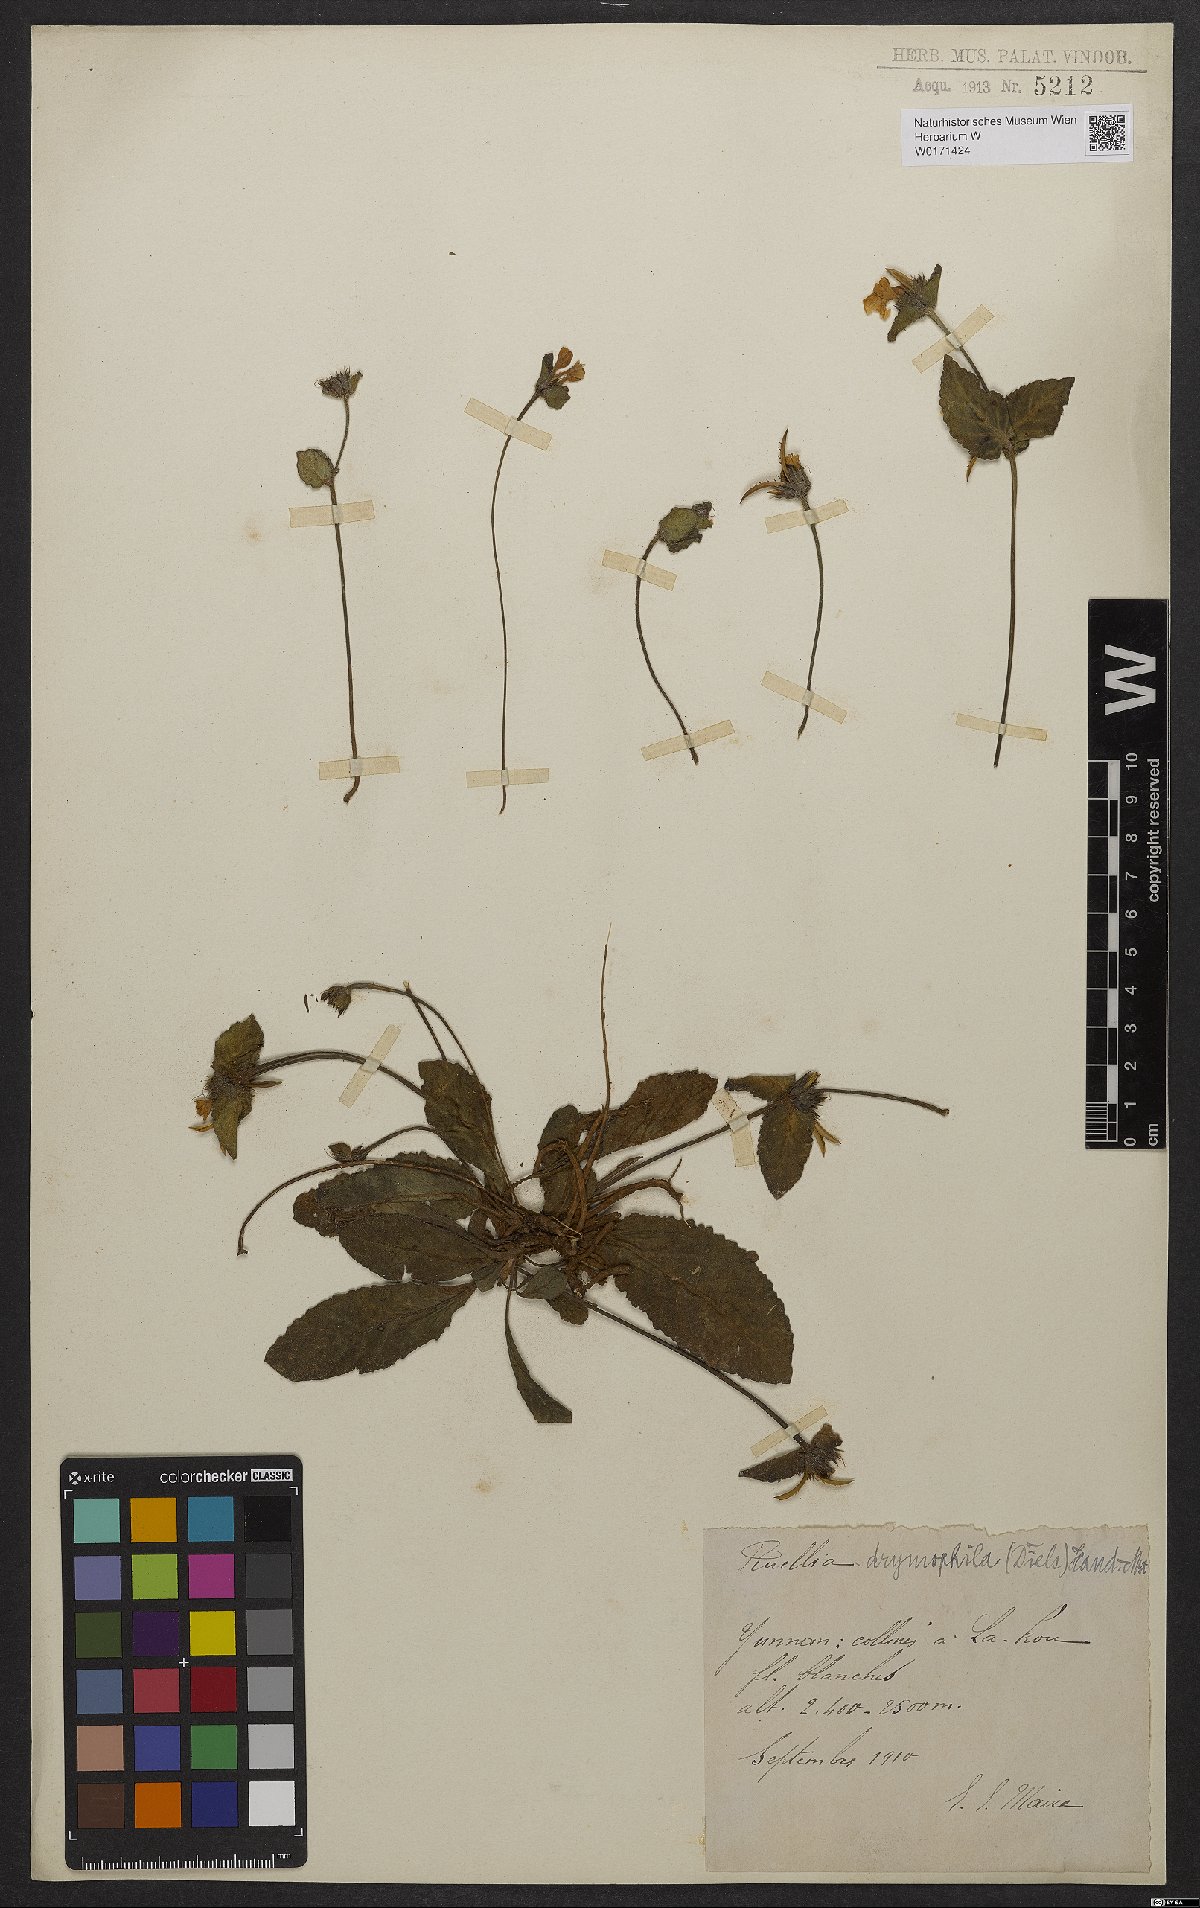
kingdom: Plantae
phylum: Tracheophyta
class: Magnoliopsida
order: Lamiales
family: Acanthaceae
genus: Pararuellia
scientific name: Pararuellia delavayana
